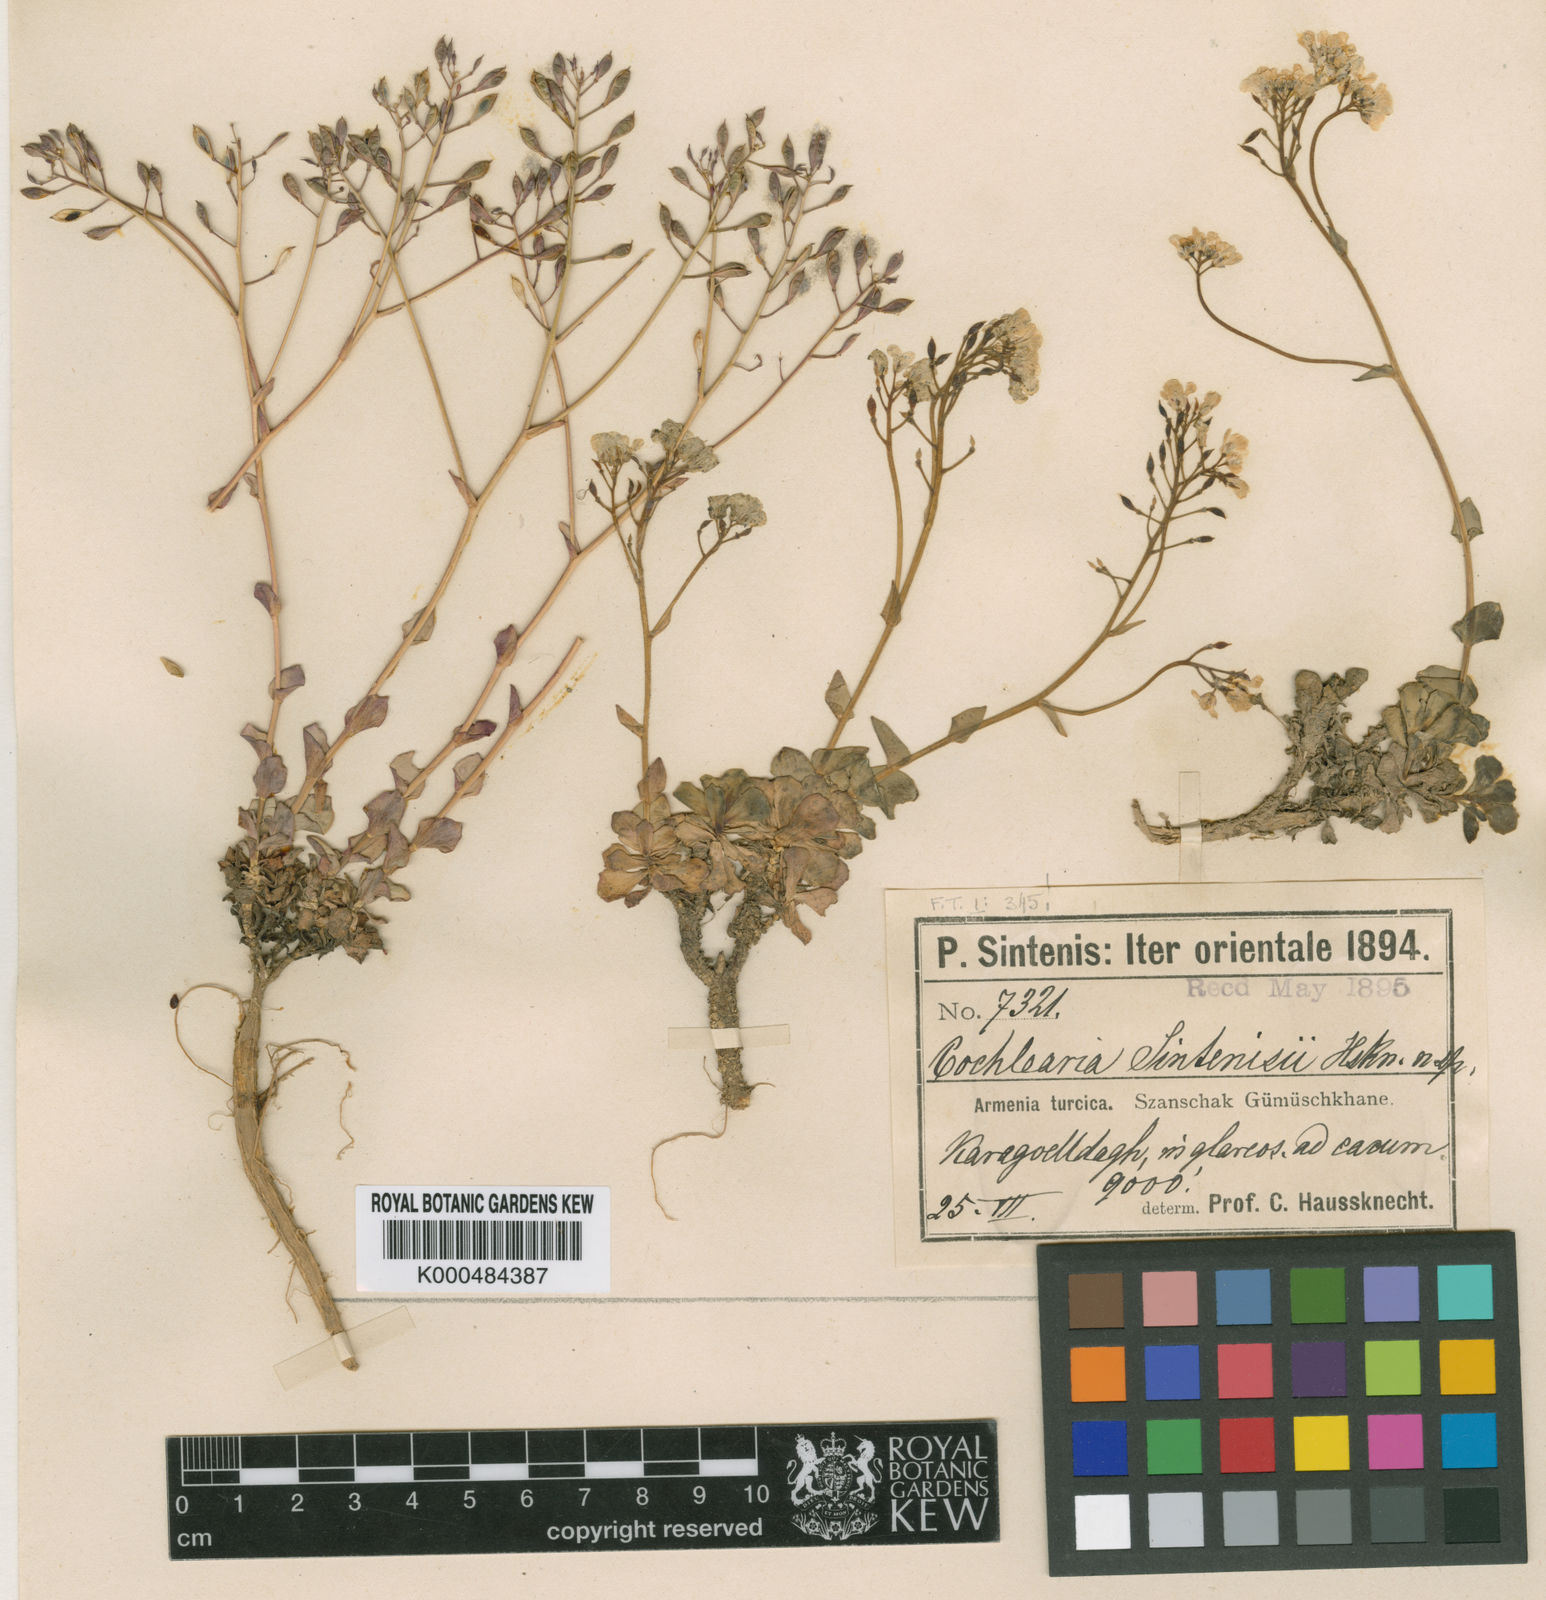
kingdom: Plantae
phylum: Tracheophyta
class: Magnoliopsida
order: Brassicales
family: Brassicaceae
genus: Noccaea
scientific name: Noccaea mummenhoffiana
